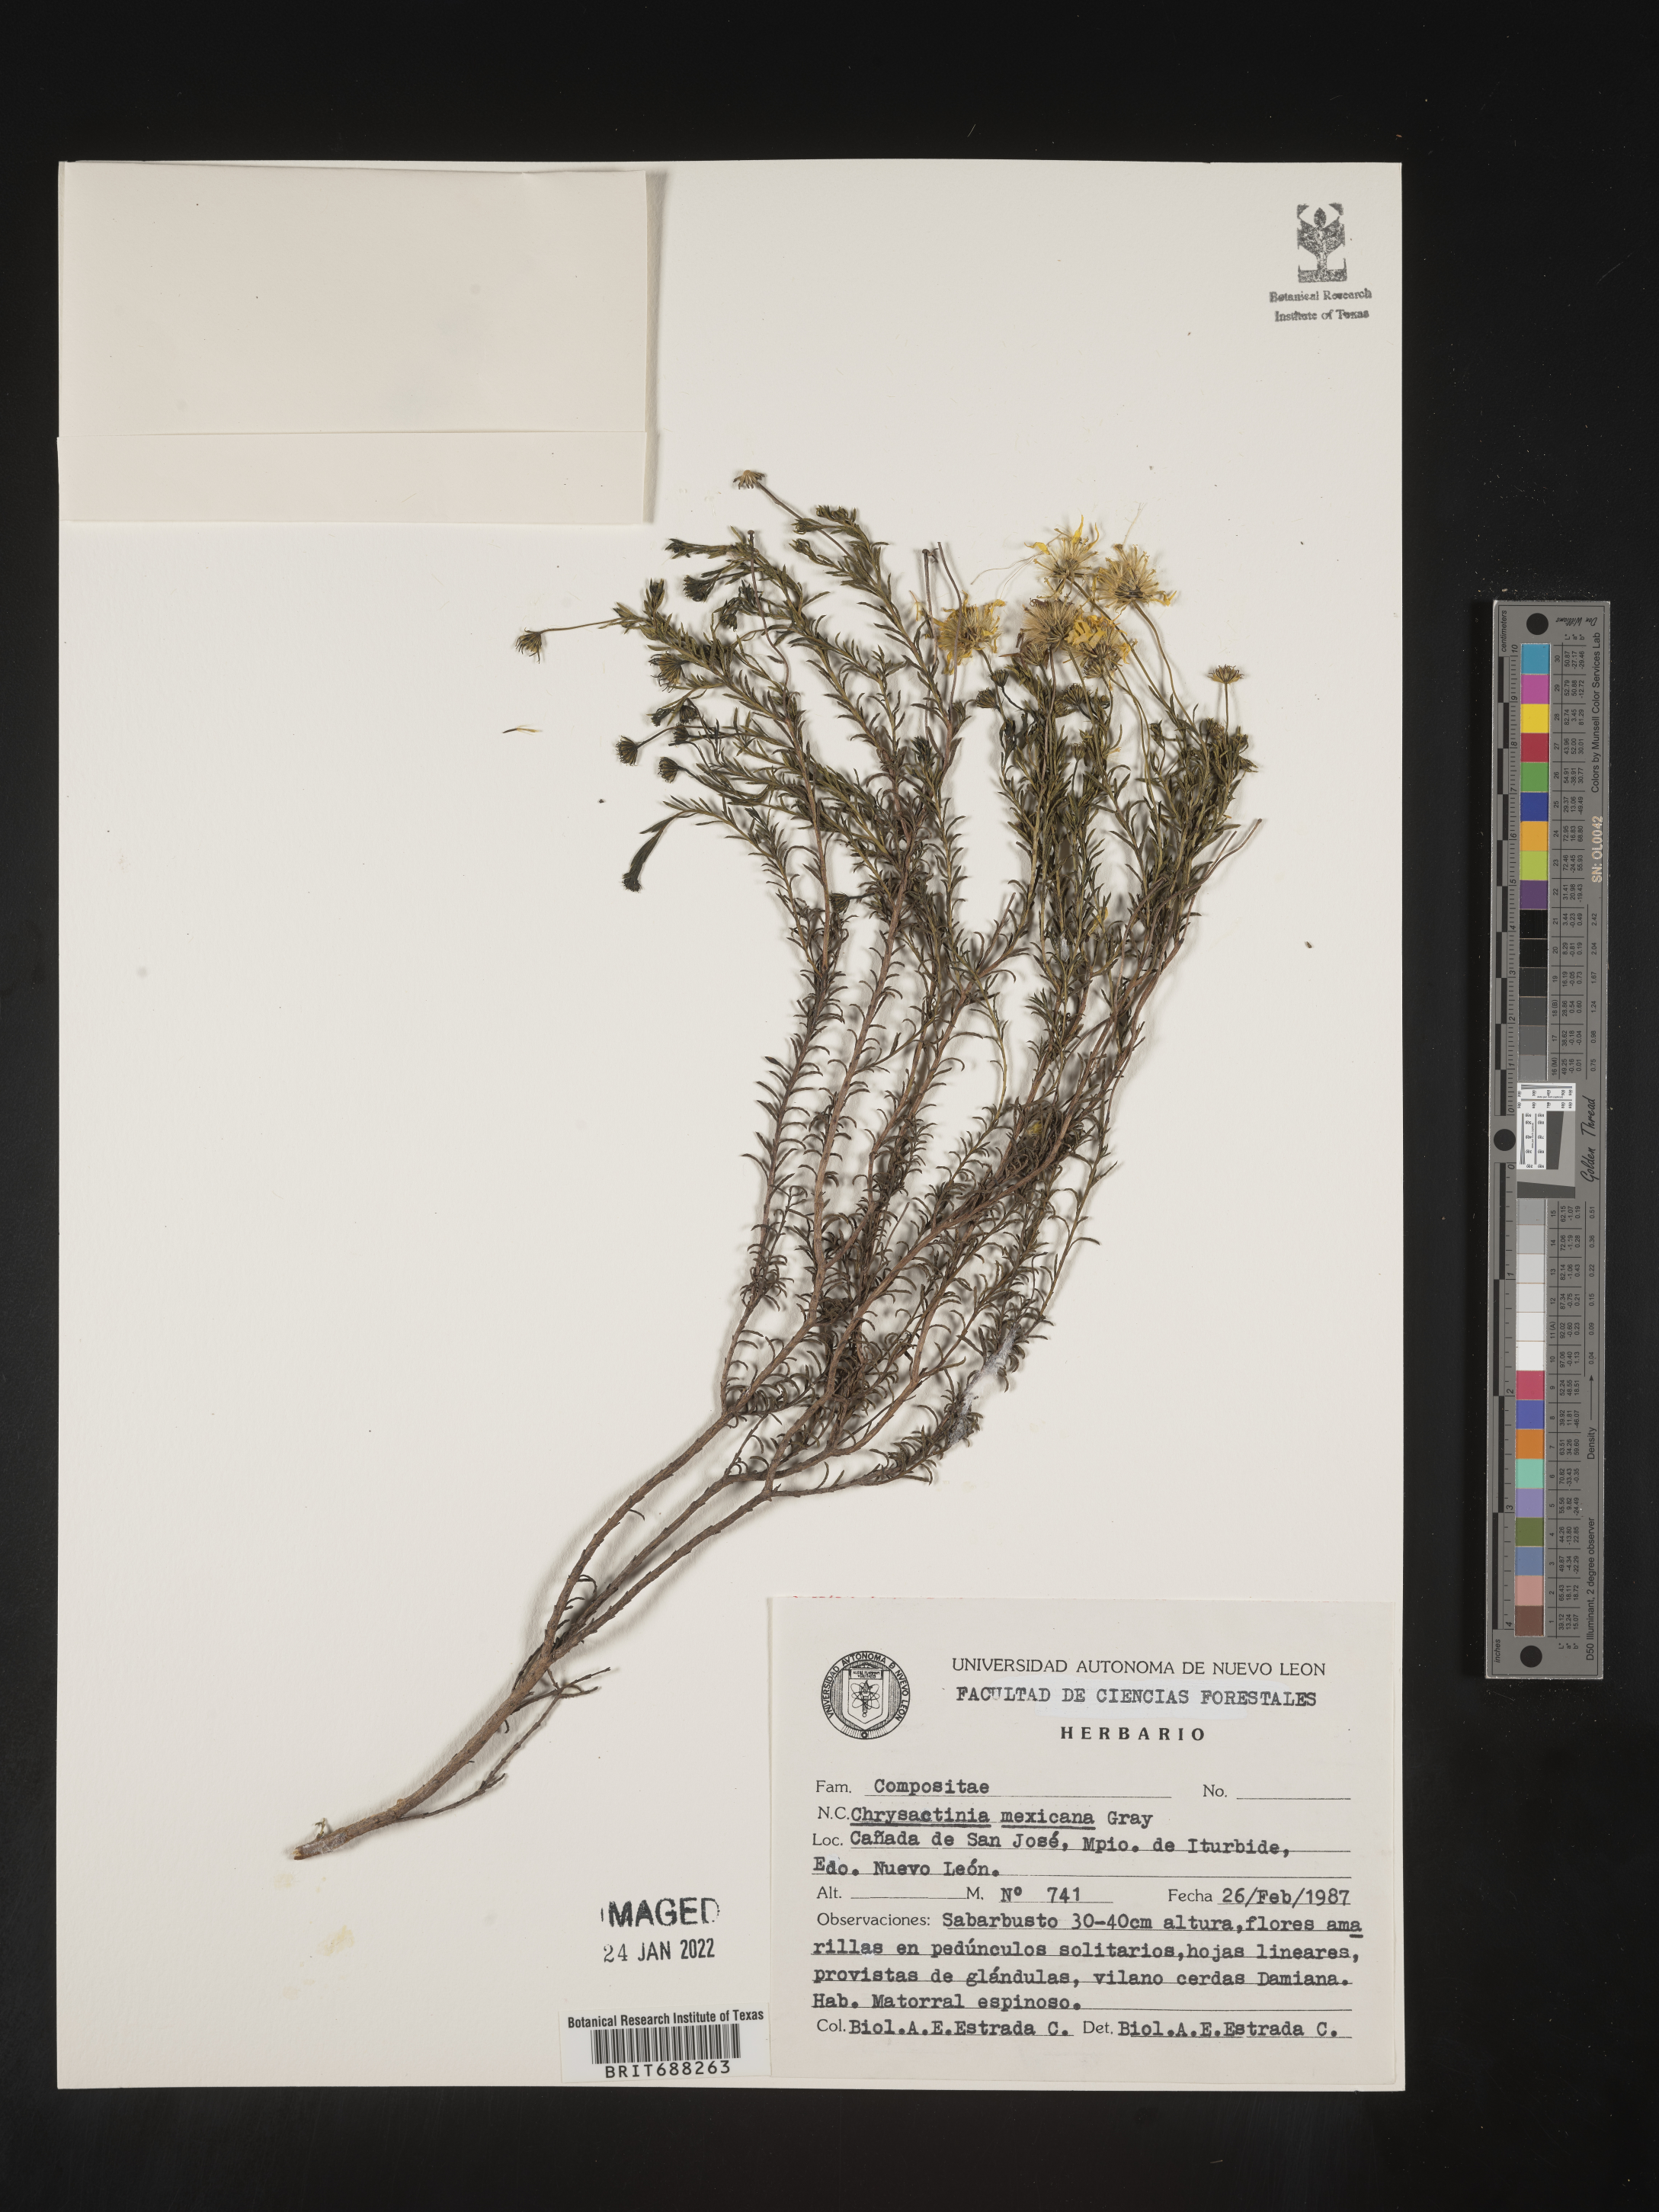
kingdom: Plantae
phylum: Tracheophyta
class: Magnoliopsida
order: Asterales
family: Asteraceae
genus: Chrysactinia
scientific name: Chrysactinia
